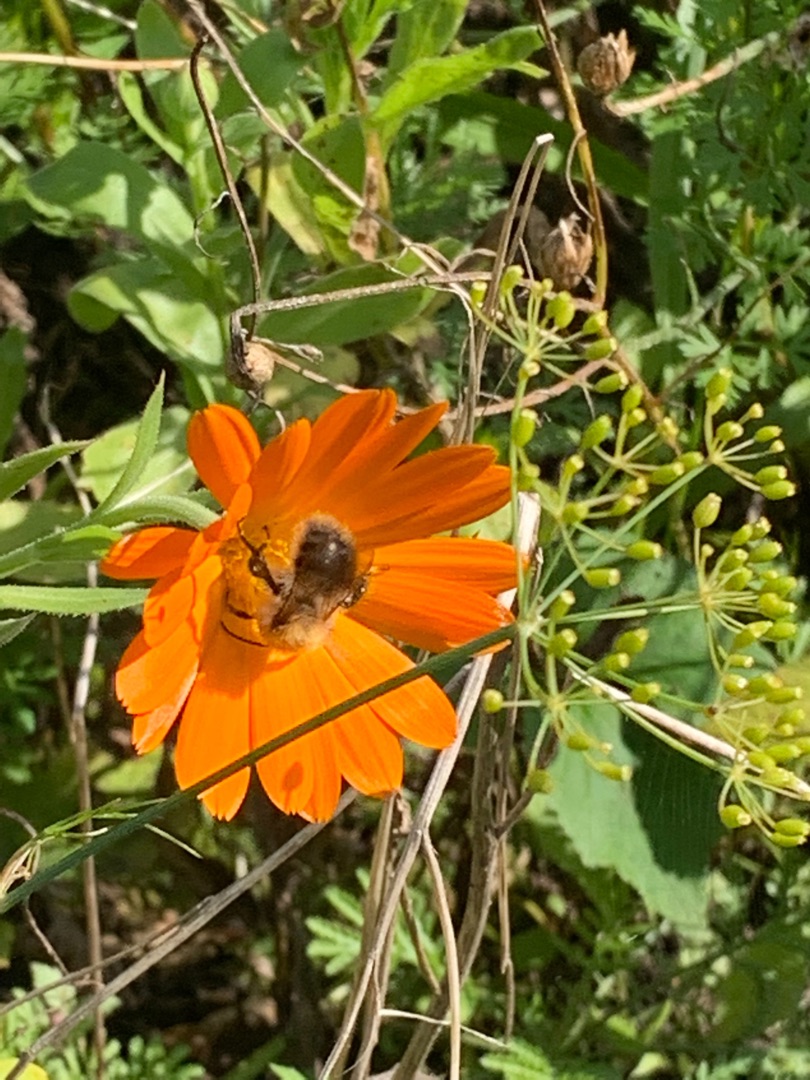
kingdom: Plantae
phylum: Tracheophyta
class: Magnoliopsida
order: Asterales
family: Asteraceae
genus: Calendula
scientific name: Calendula officinalis
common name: Have-morgenfrue
